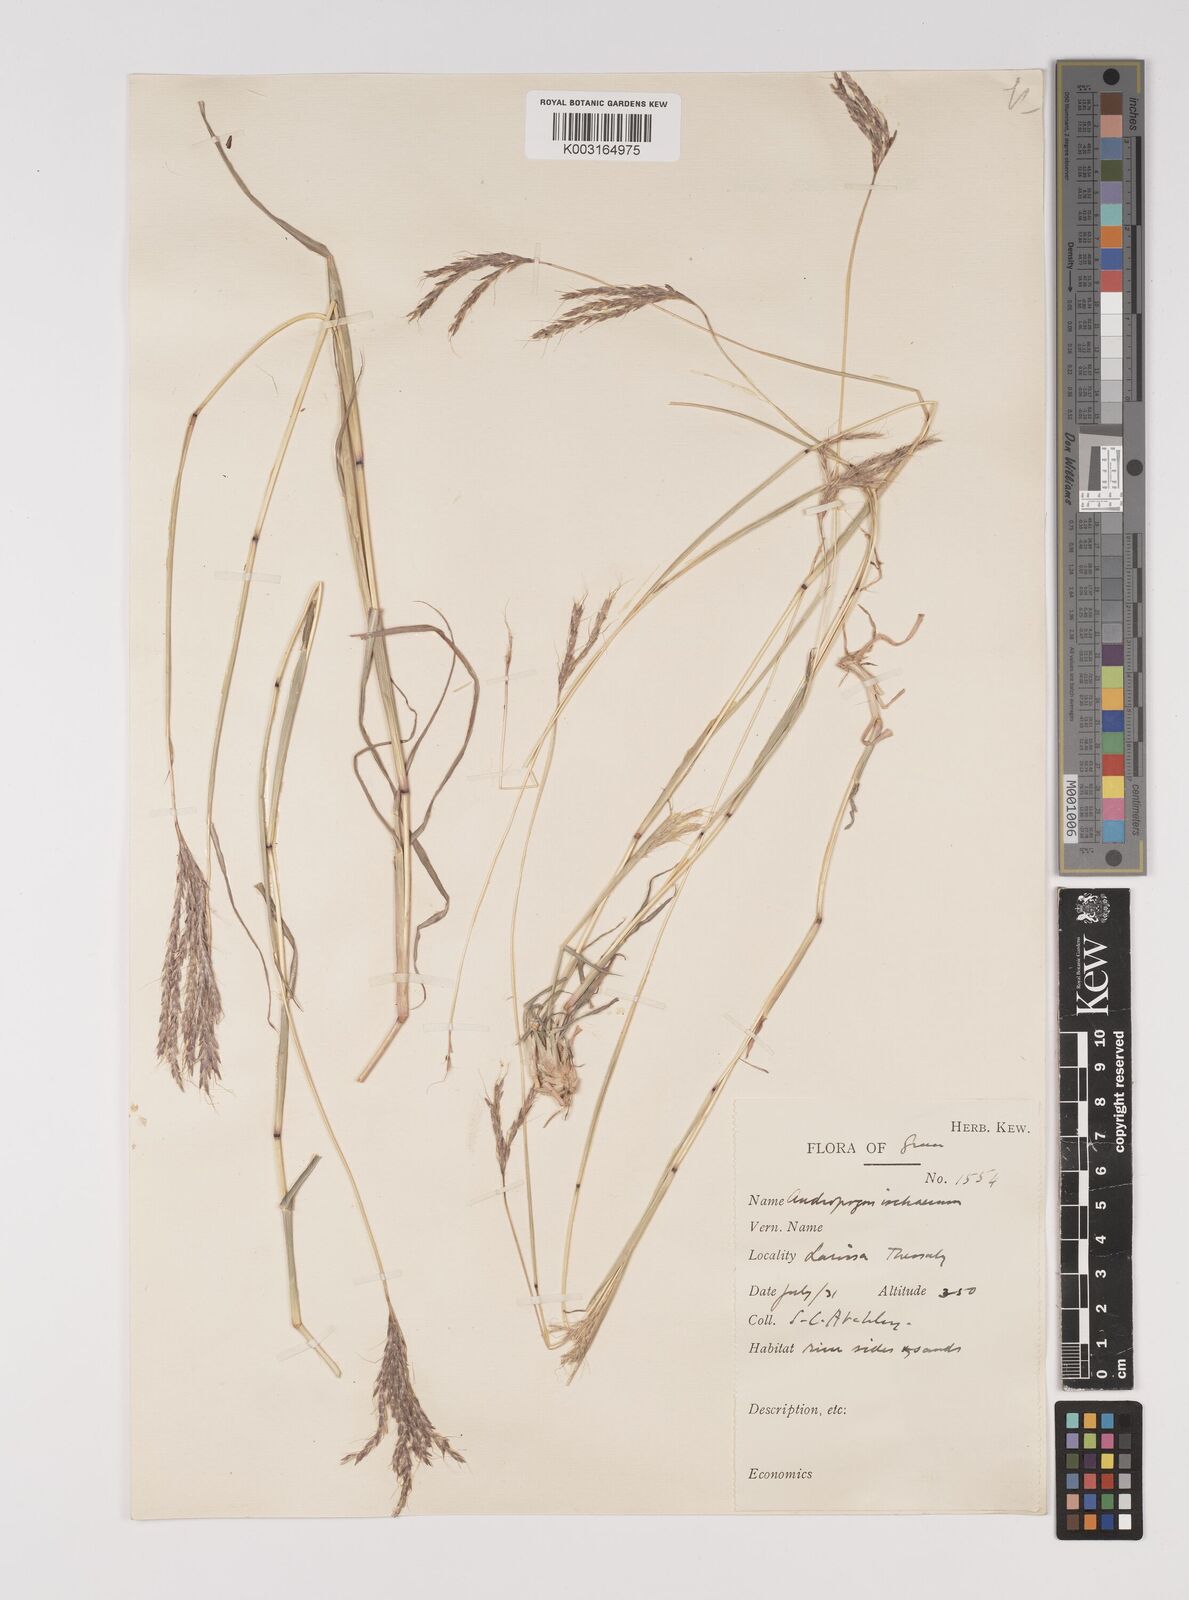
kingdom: Plantae
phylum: Tracheophyta
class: Liliopsida
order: Poales
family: Poaceae
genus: Bothriochloa
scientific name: Bothriochloa ischaemum
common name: Yellow bluestem
